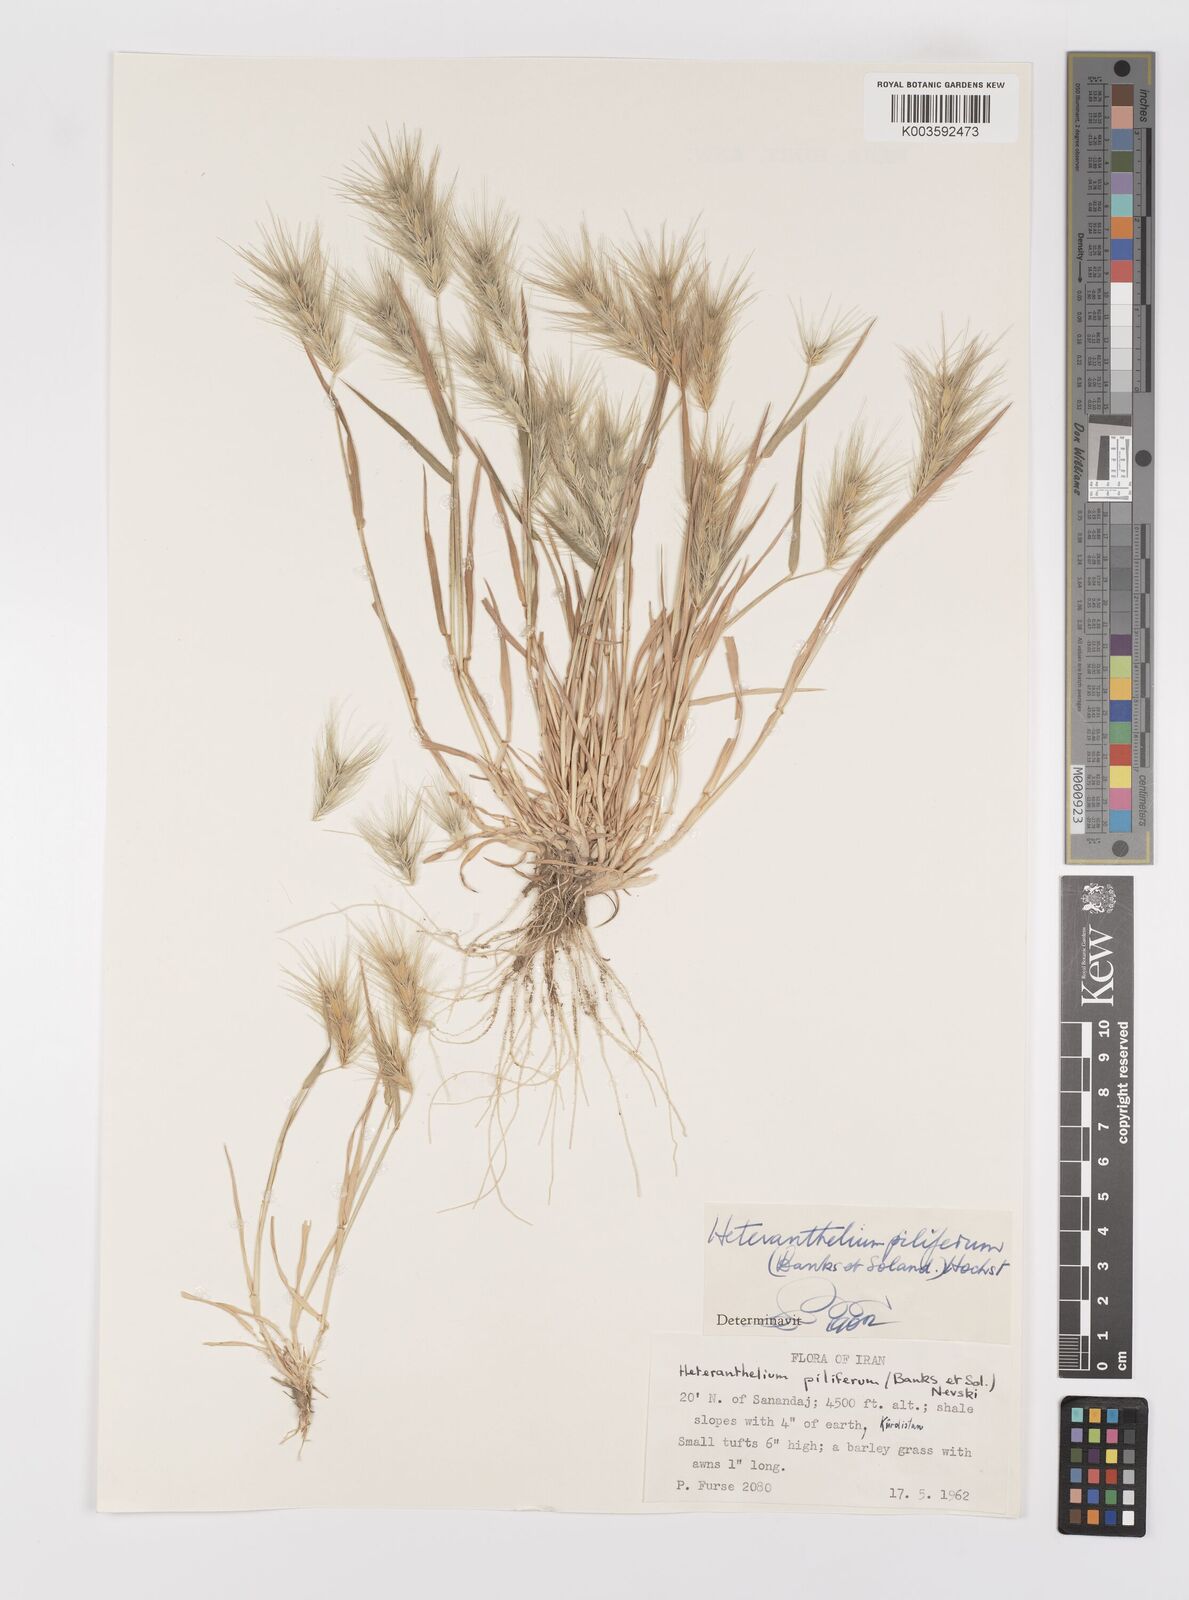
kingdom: Plantae
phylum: Tracheophyta
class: Liliopsida
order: Poales
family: Poaceae
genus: Heteranthelium
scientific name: Heteranthelium piliferum
